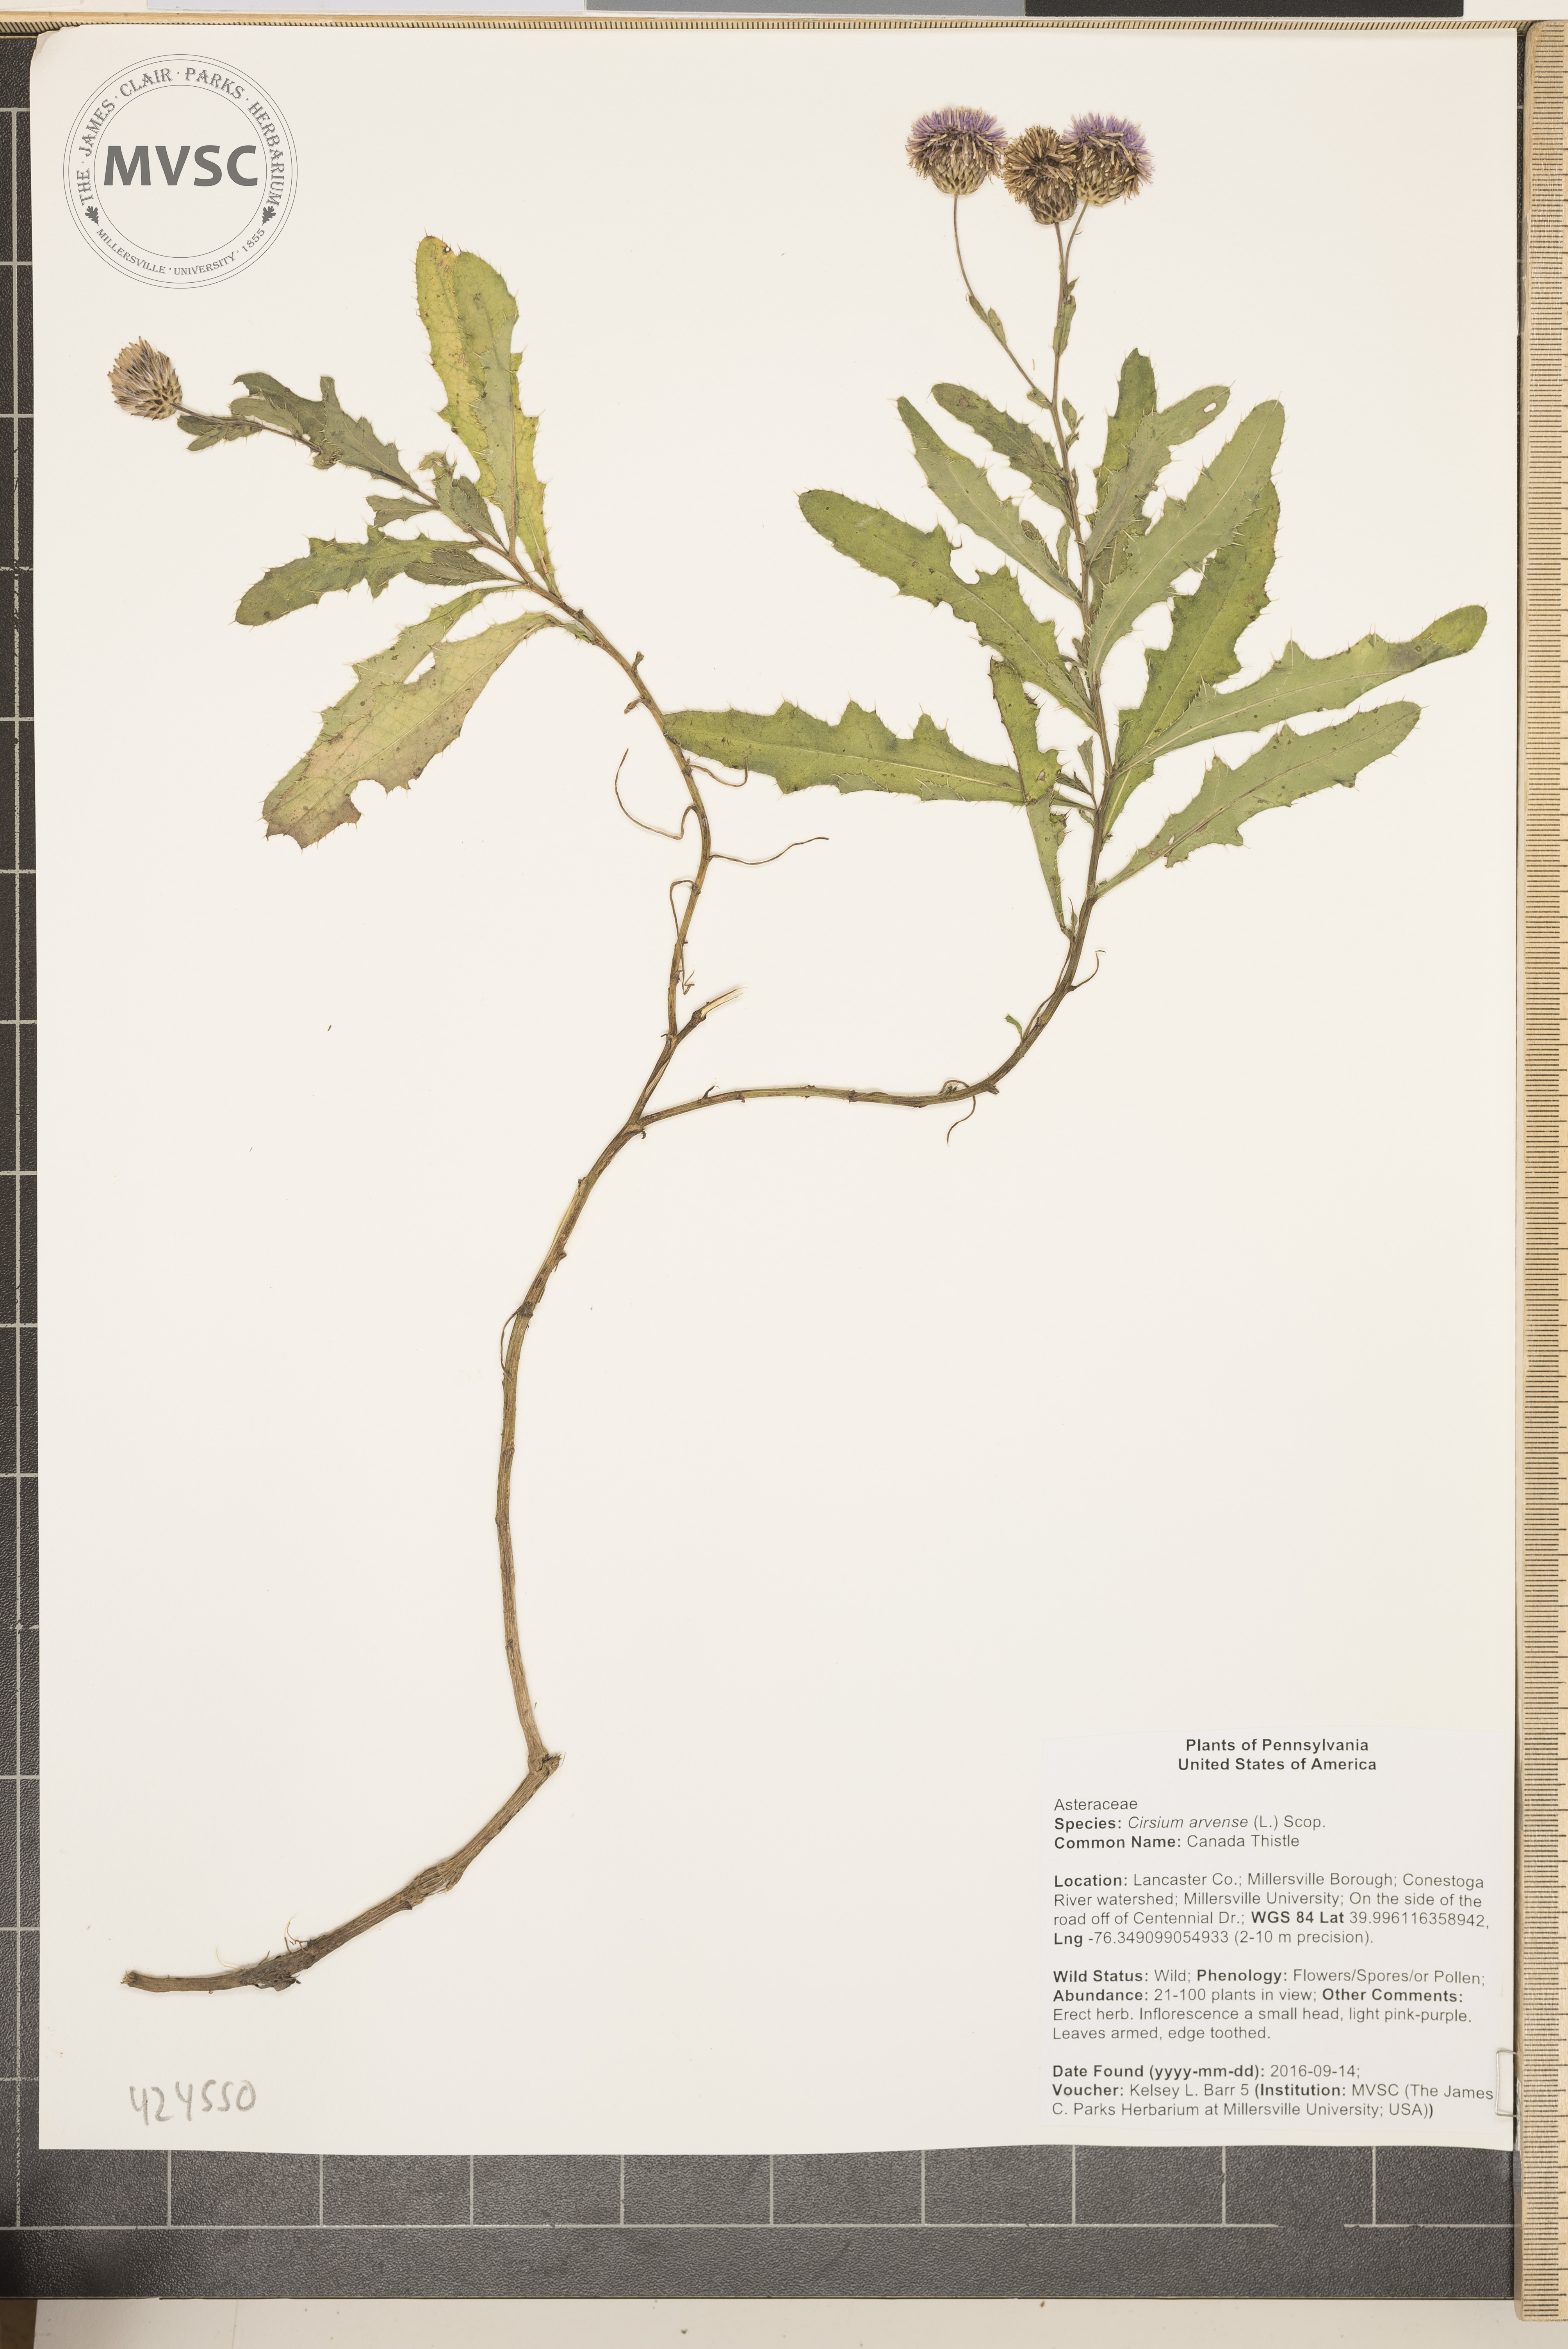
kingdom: Plantae
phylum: Tracheophyta
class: Magnoliopsida
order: Asterales
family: Asteraceae
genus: Cirsium
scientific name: Cirsium arvense
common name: Canada thistle
